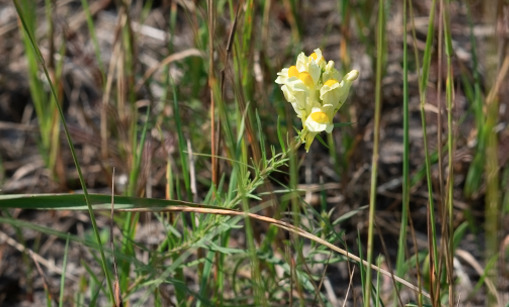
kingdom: Plantae
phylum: Tracheophyta
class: Magnoliopsida
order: Lamiales
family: Plantaginaceae
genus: Linaria
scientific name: Linaria vulgaris
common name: Almindelig torskemund
